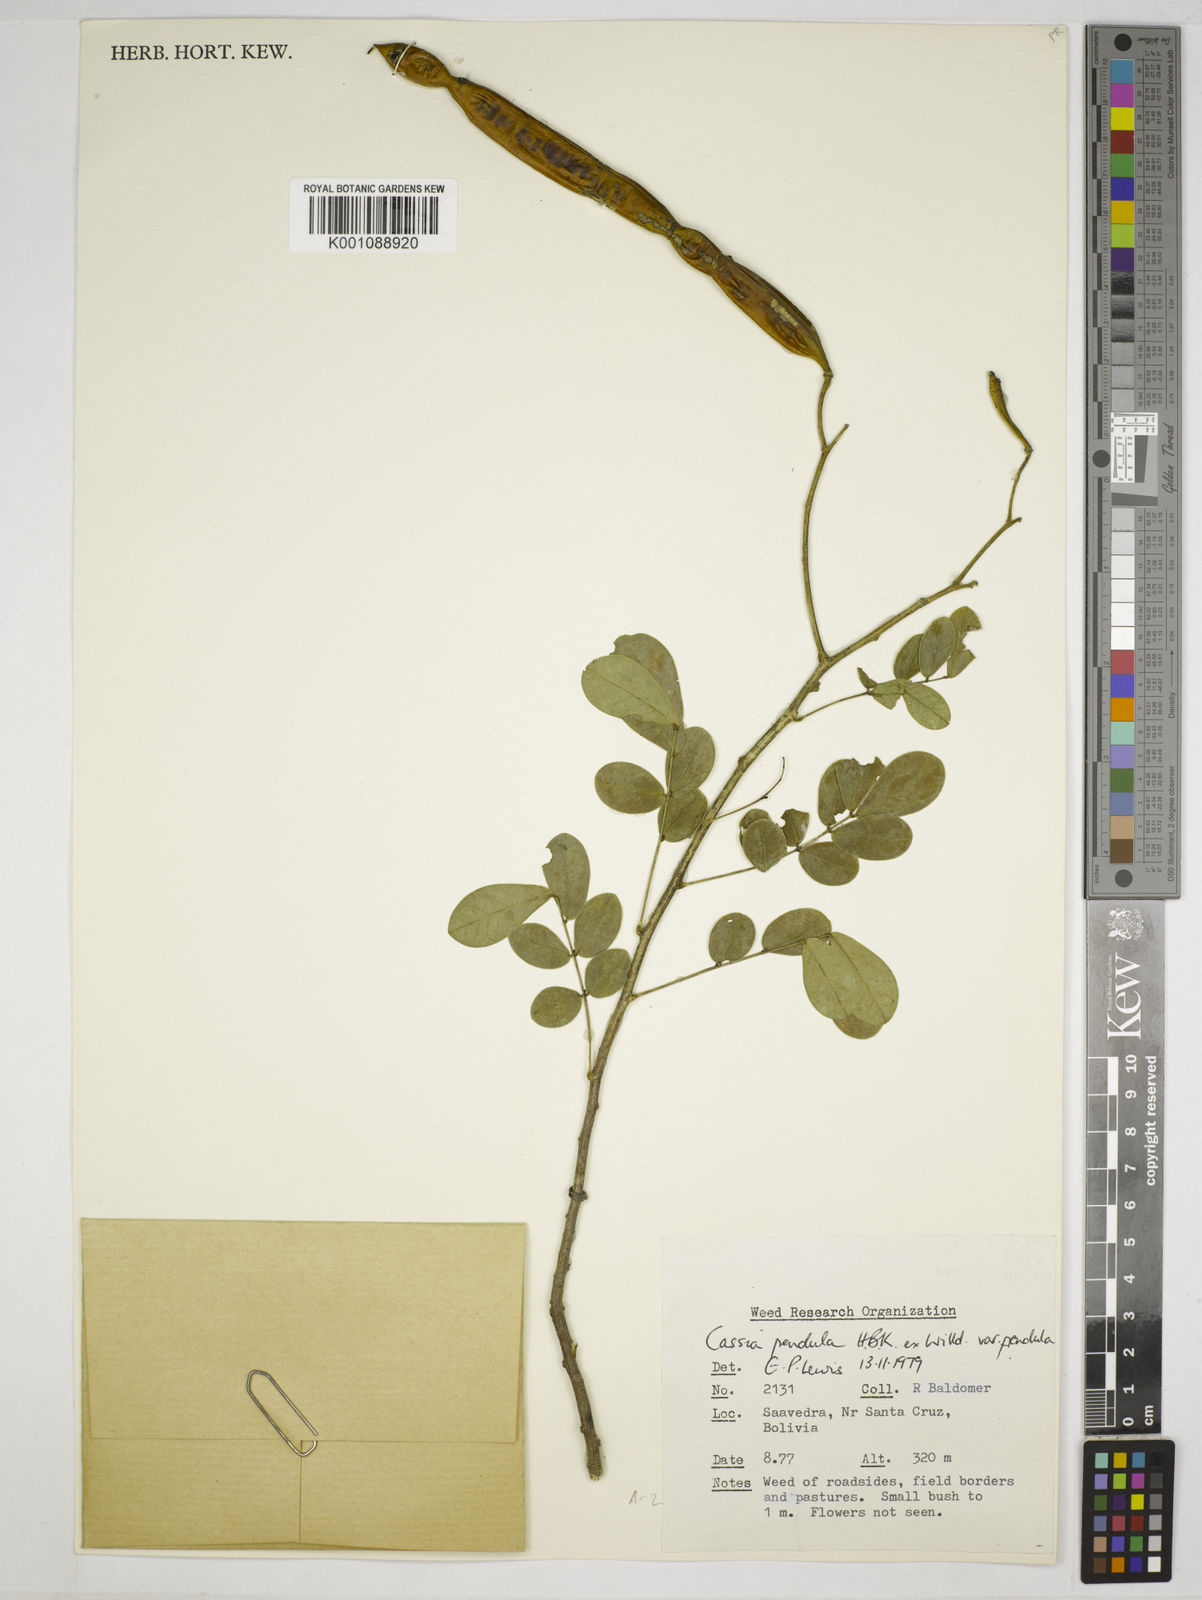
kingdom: Plantae
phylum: Tracheophyta
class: Magnoliopsida
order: Fabales
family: Fabaceae
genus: Senna
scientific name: Senna pendula
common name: Easter cassia
